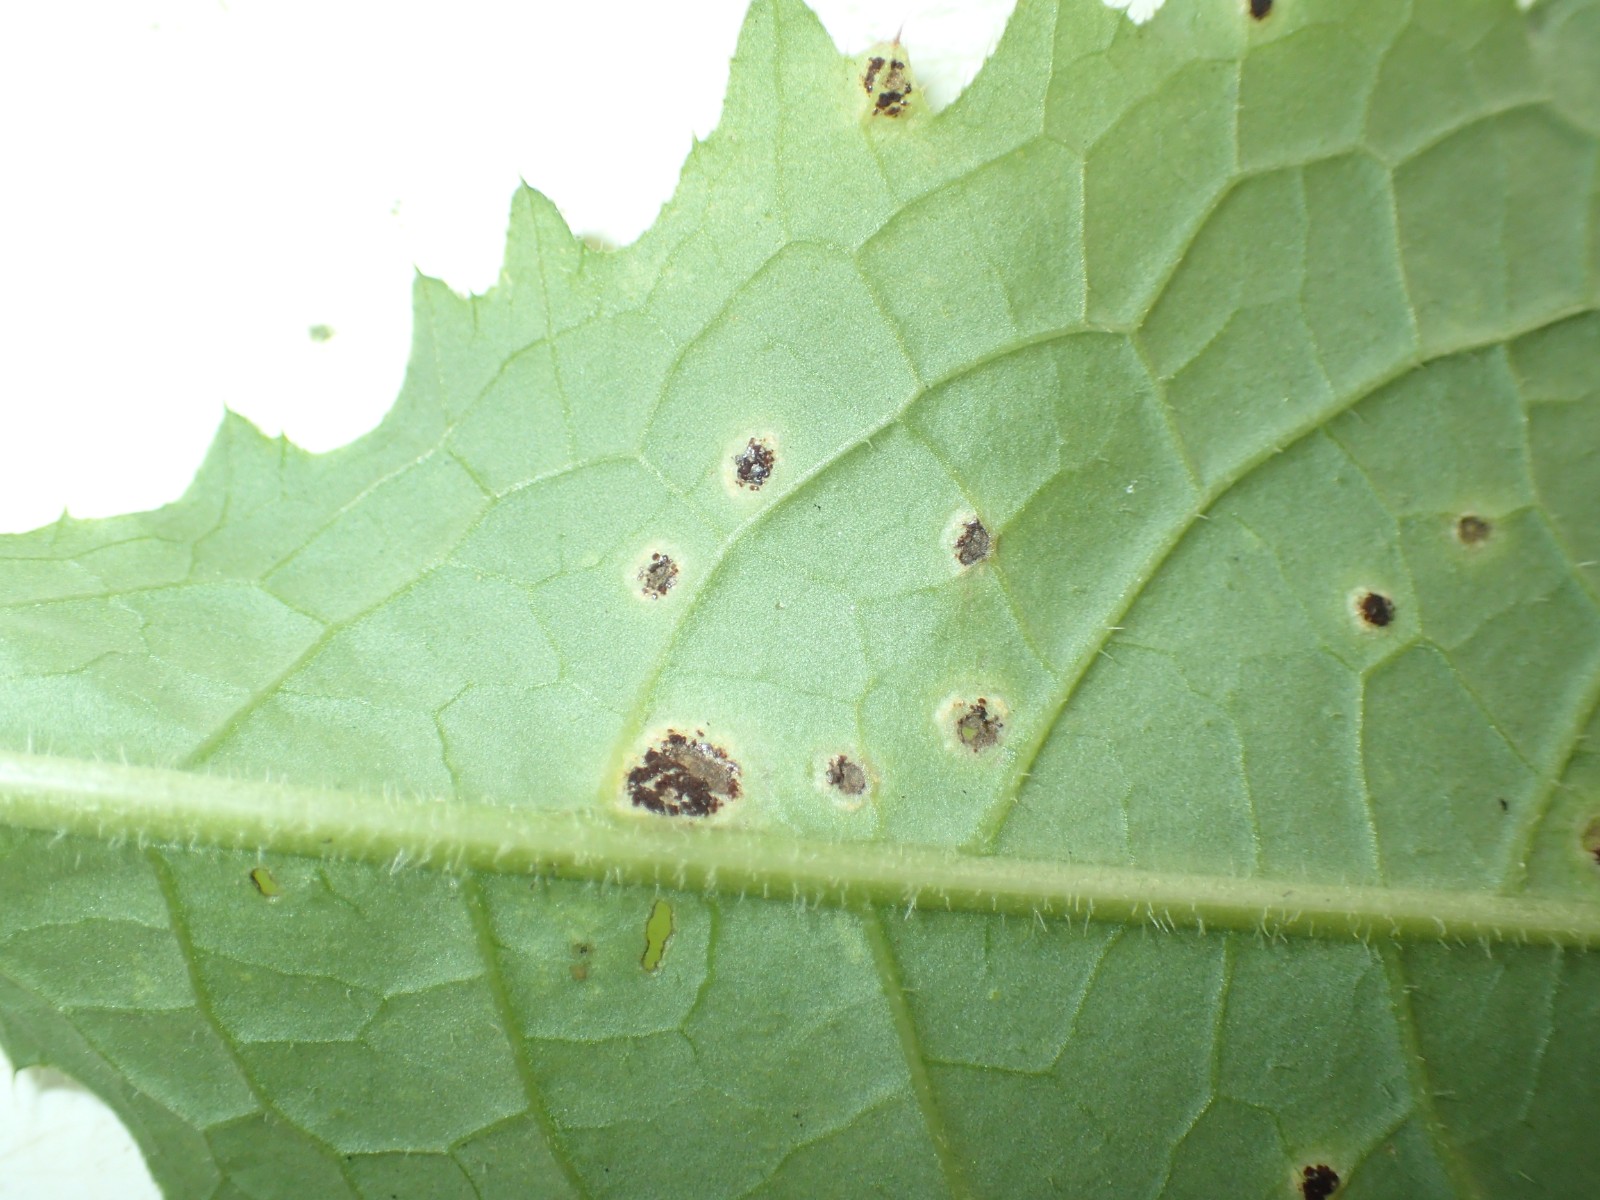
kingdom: Fungi
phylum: Basidiomycota
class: Pucciniomycetes
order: Pucciniales
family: Pucciniaceae
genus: Puccinia
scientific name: Puccinia cnici-oleracei
